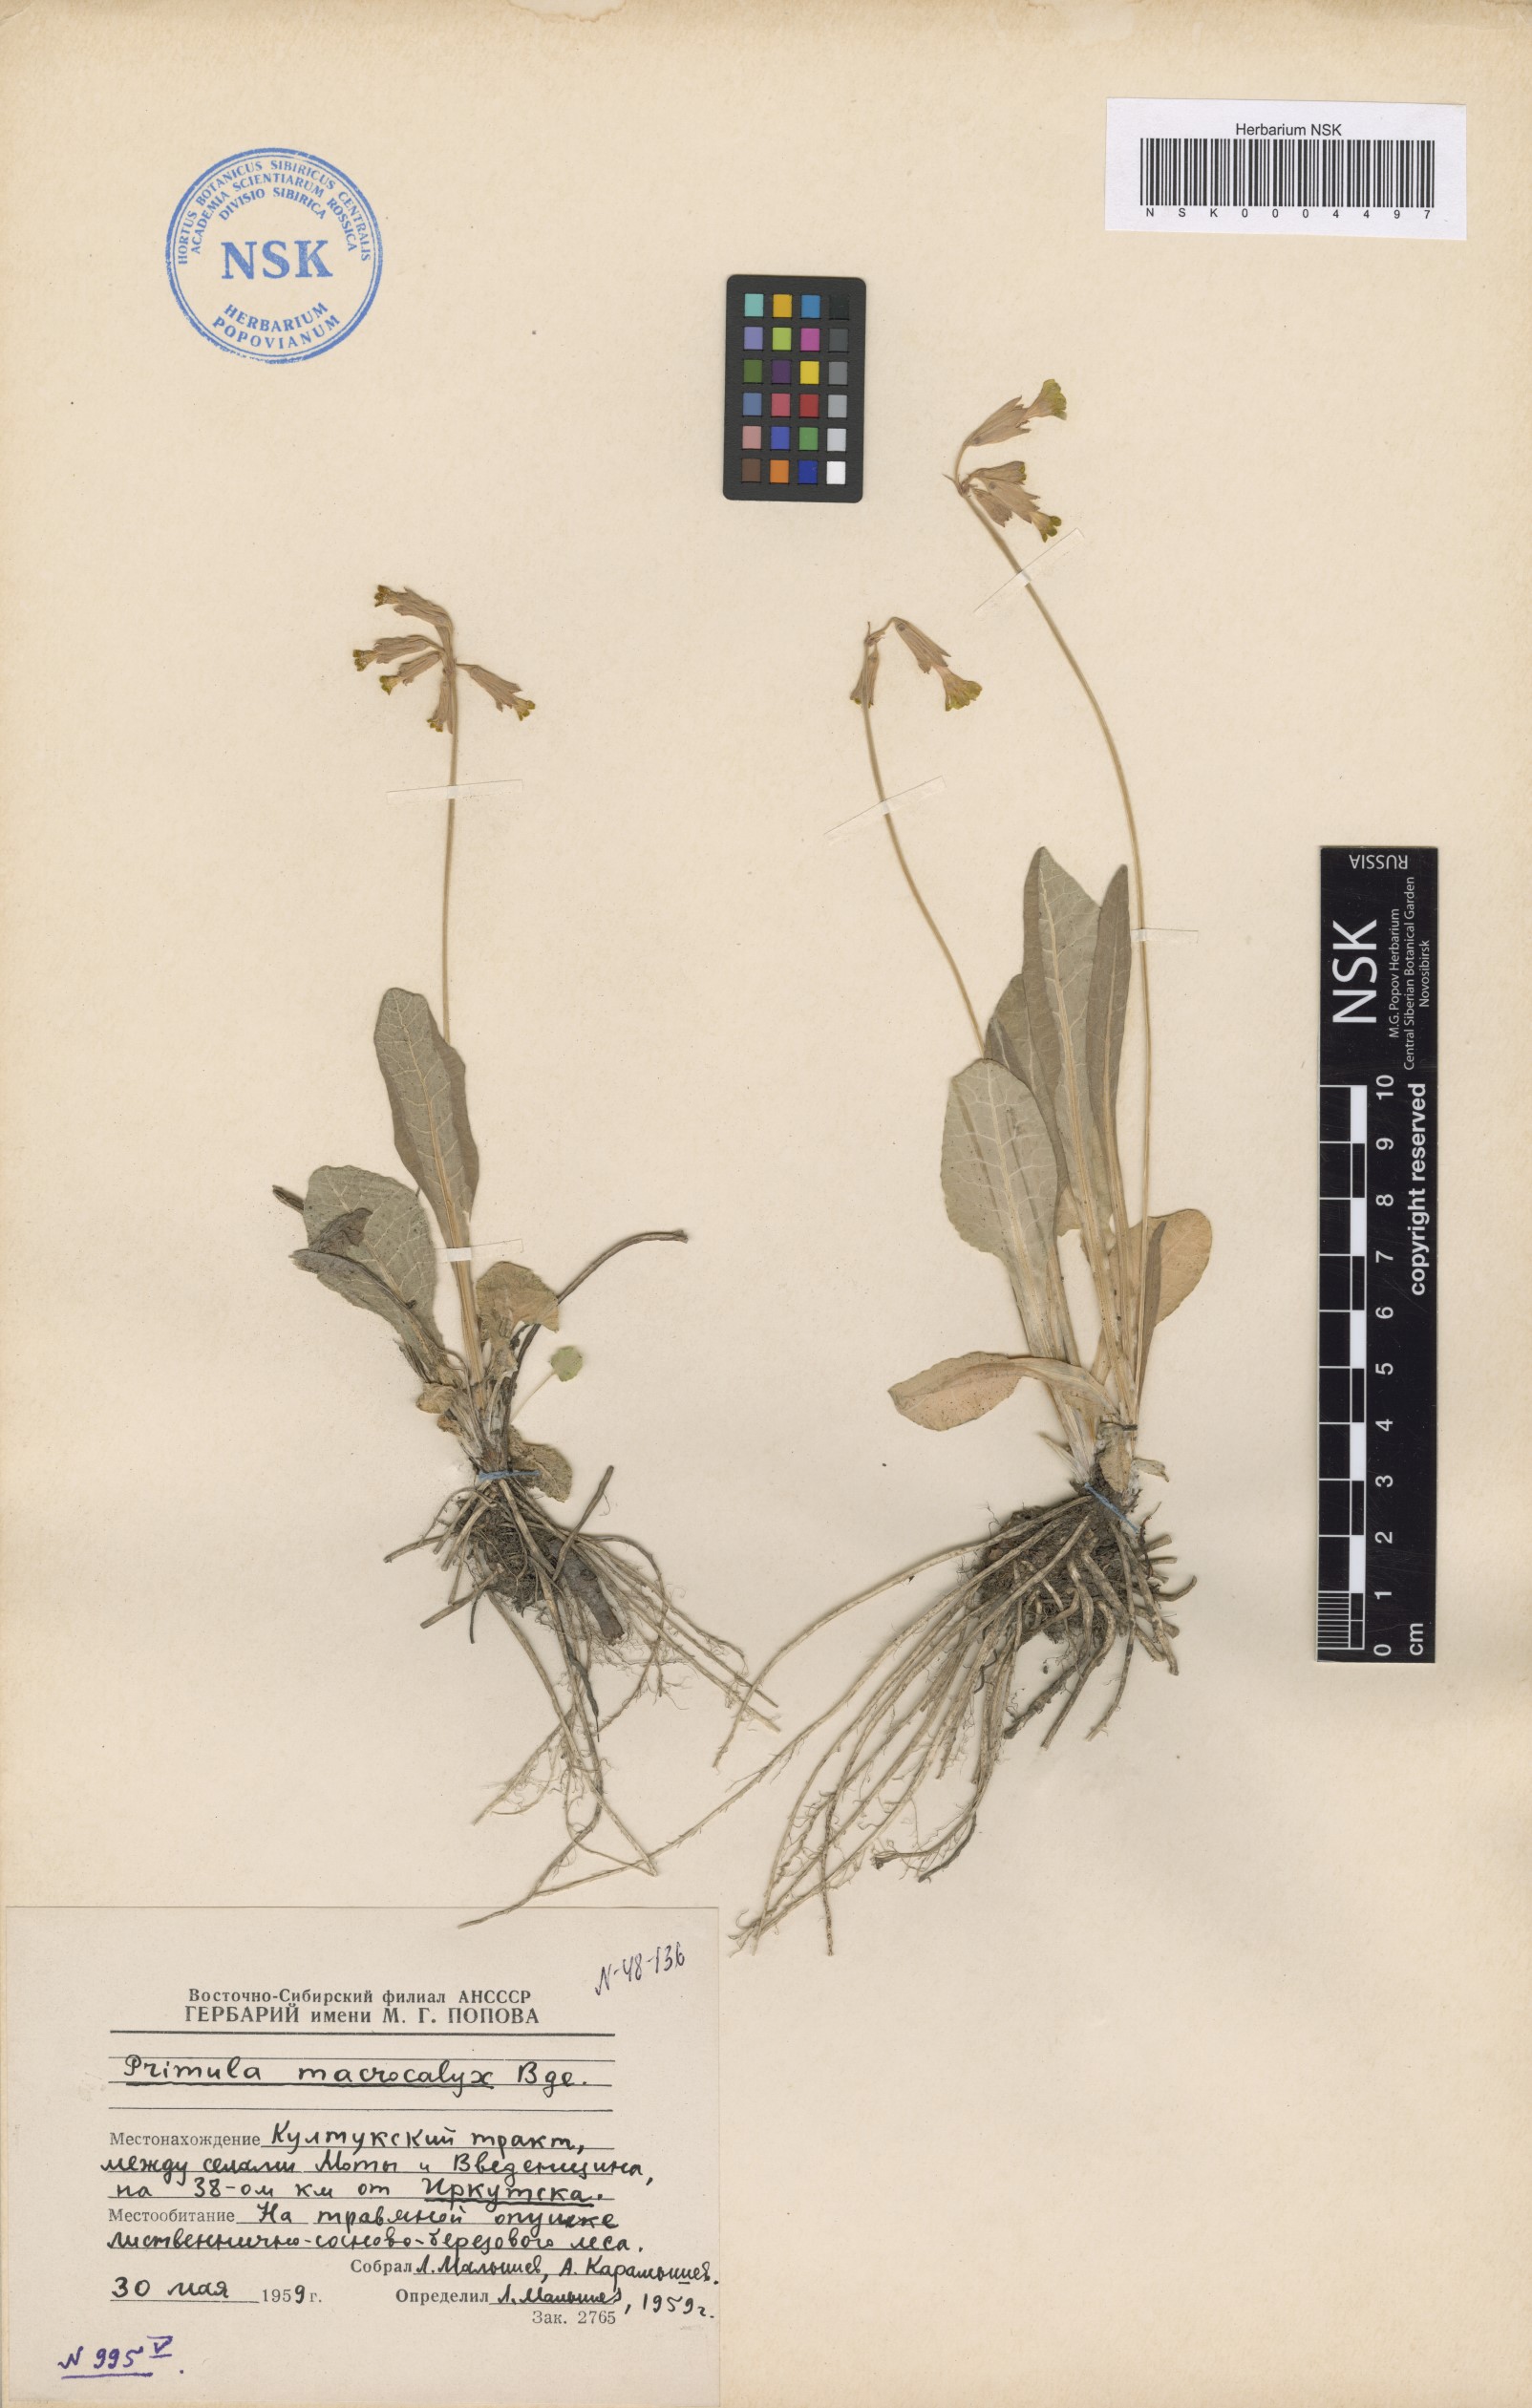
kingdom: Plantae
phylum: Tracheophyta
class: Magnoliopsida
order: Ericales
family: Primulaceae
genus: Primula
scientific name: Primula veris
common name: Cowslip
